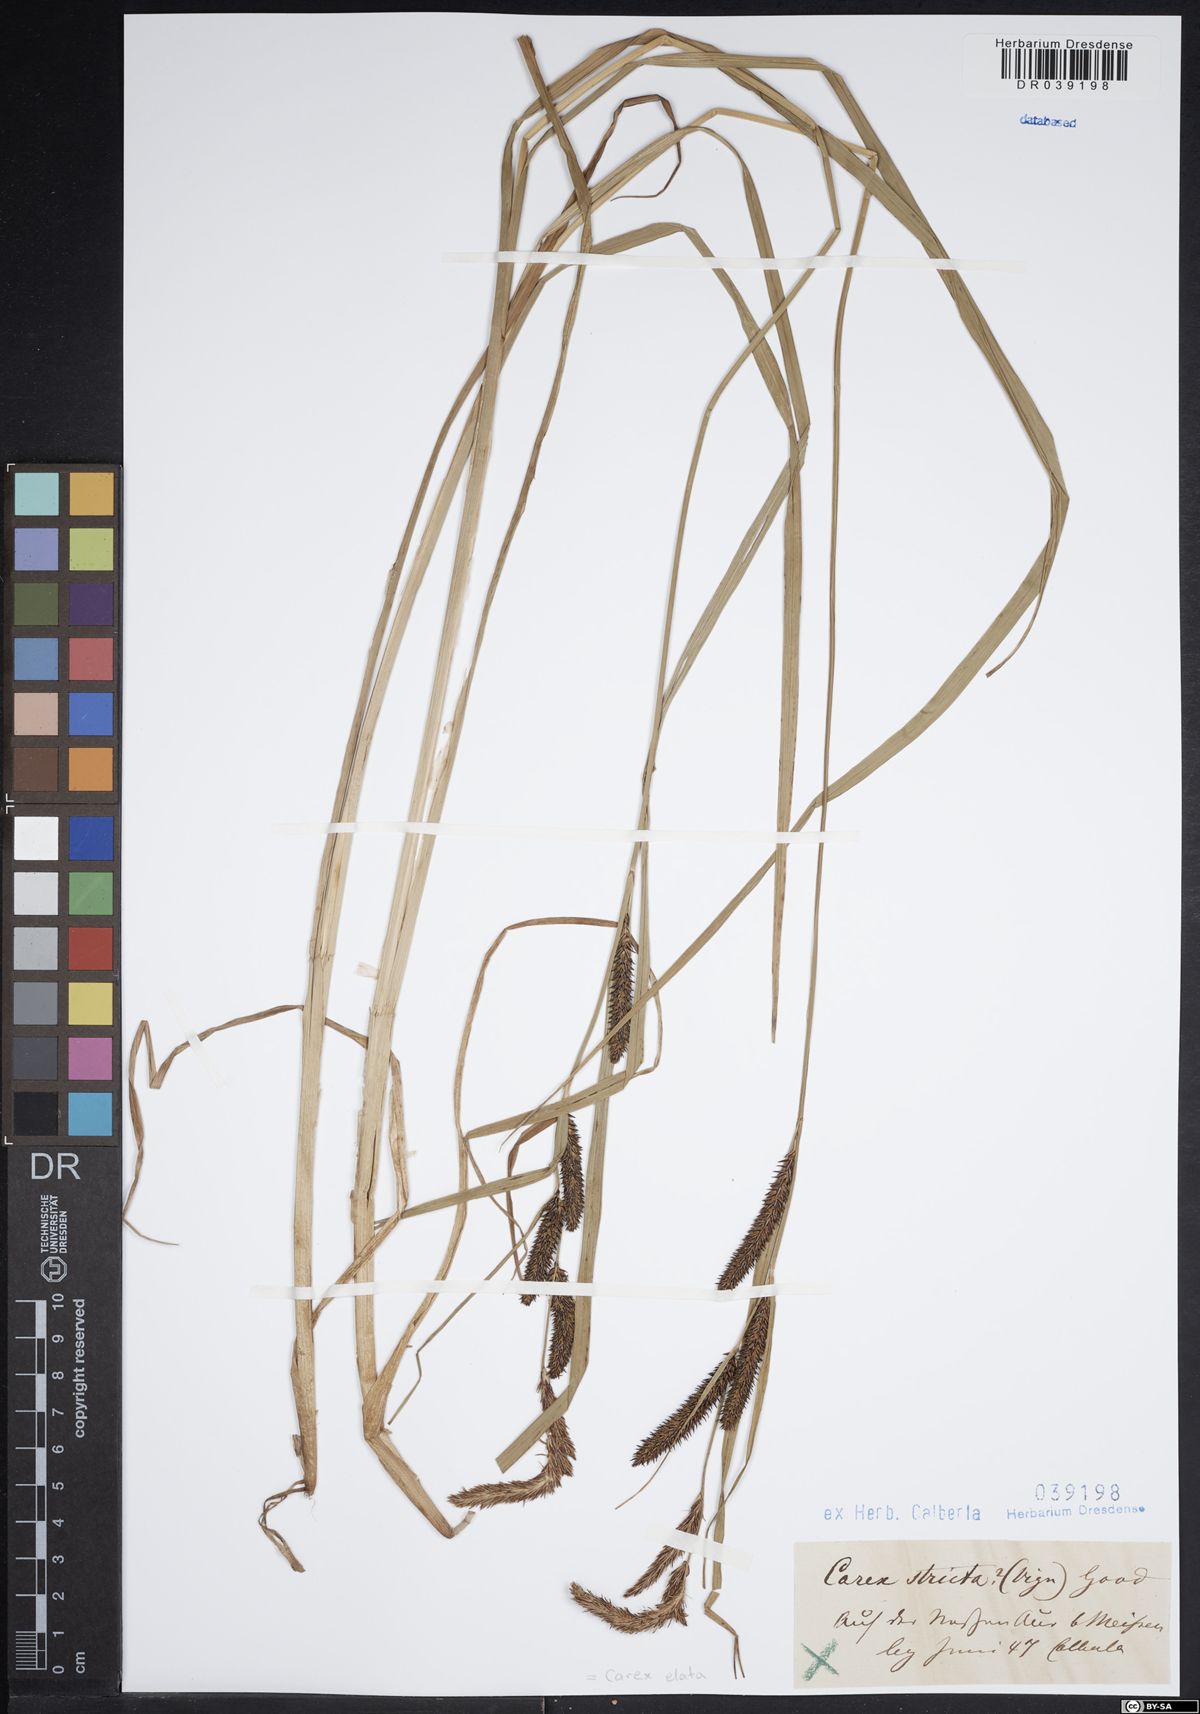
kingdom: Plantae
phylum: Tracheophyta
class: Liliopsida
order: Poales
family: Cyperaceae
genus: Carex
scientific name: Carex elata
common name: Tufted sedge
